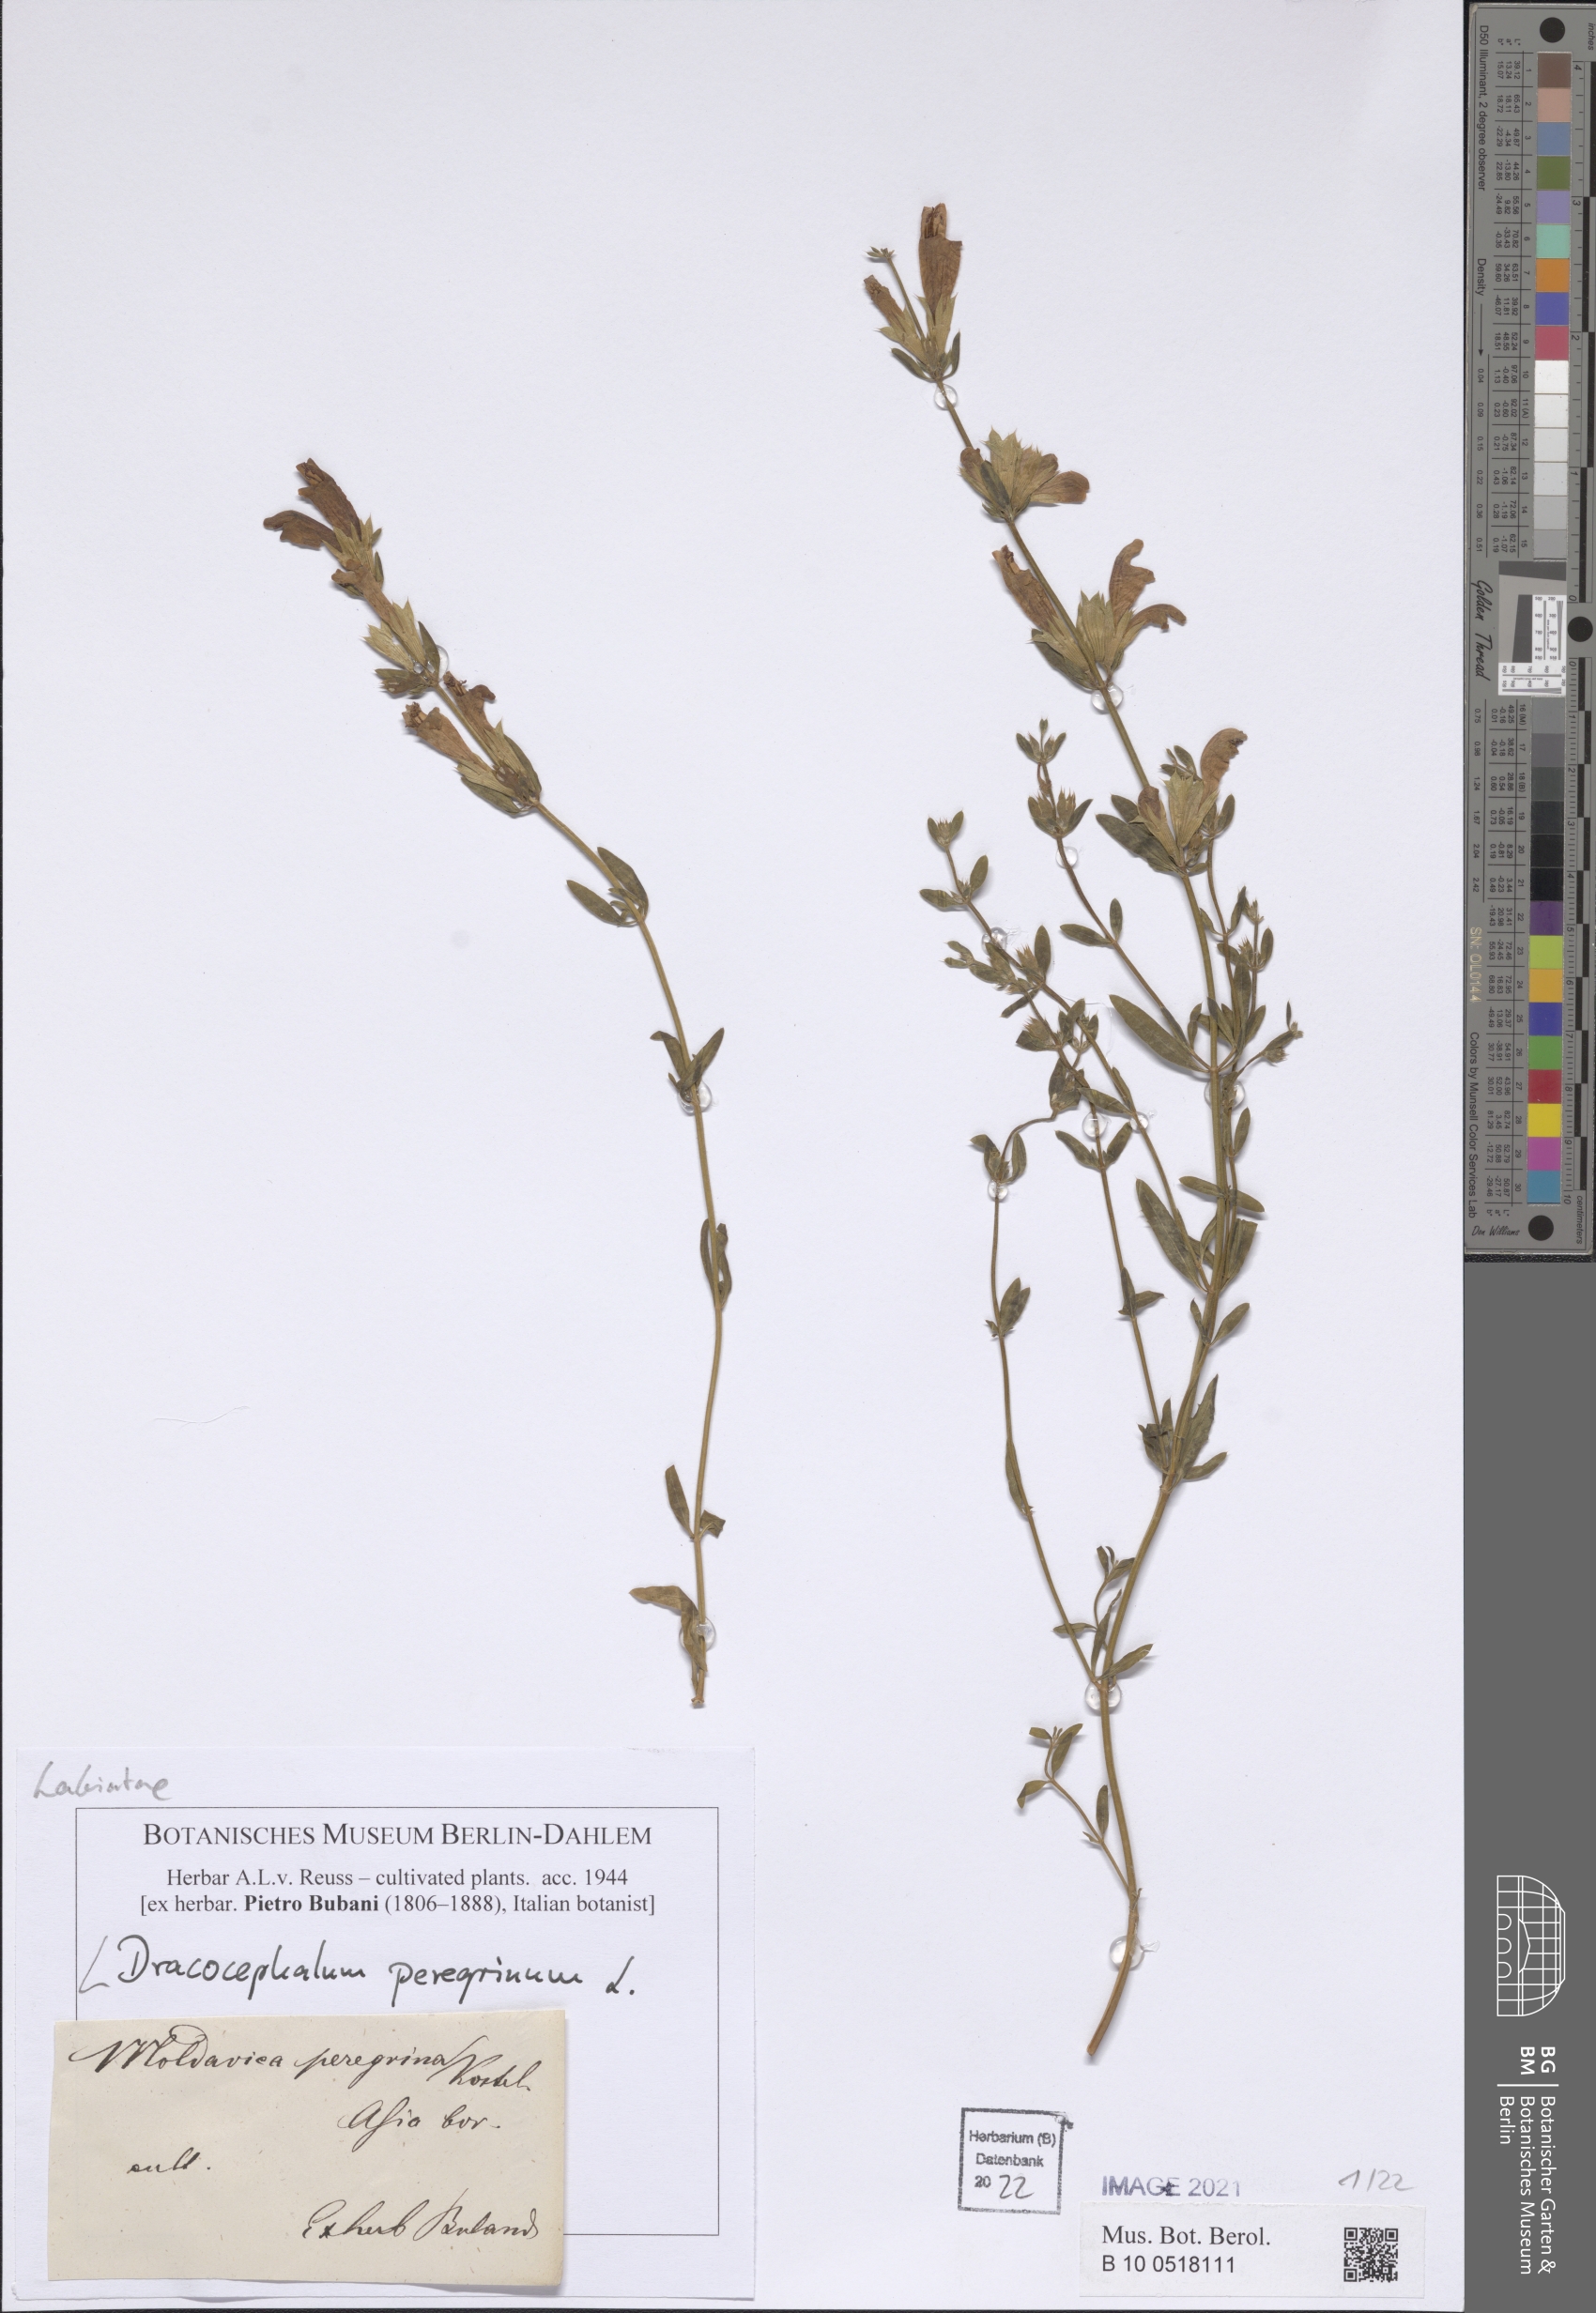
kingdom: Plantae
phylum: Tracheophyta
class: Magnoliopsida
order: Lamiales
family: Lamiaceae
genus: Dracocephalum
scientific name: Dracocephalum peregrinum
